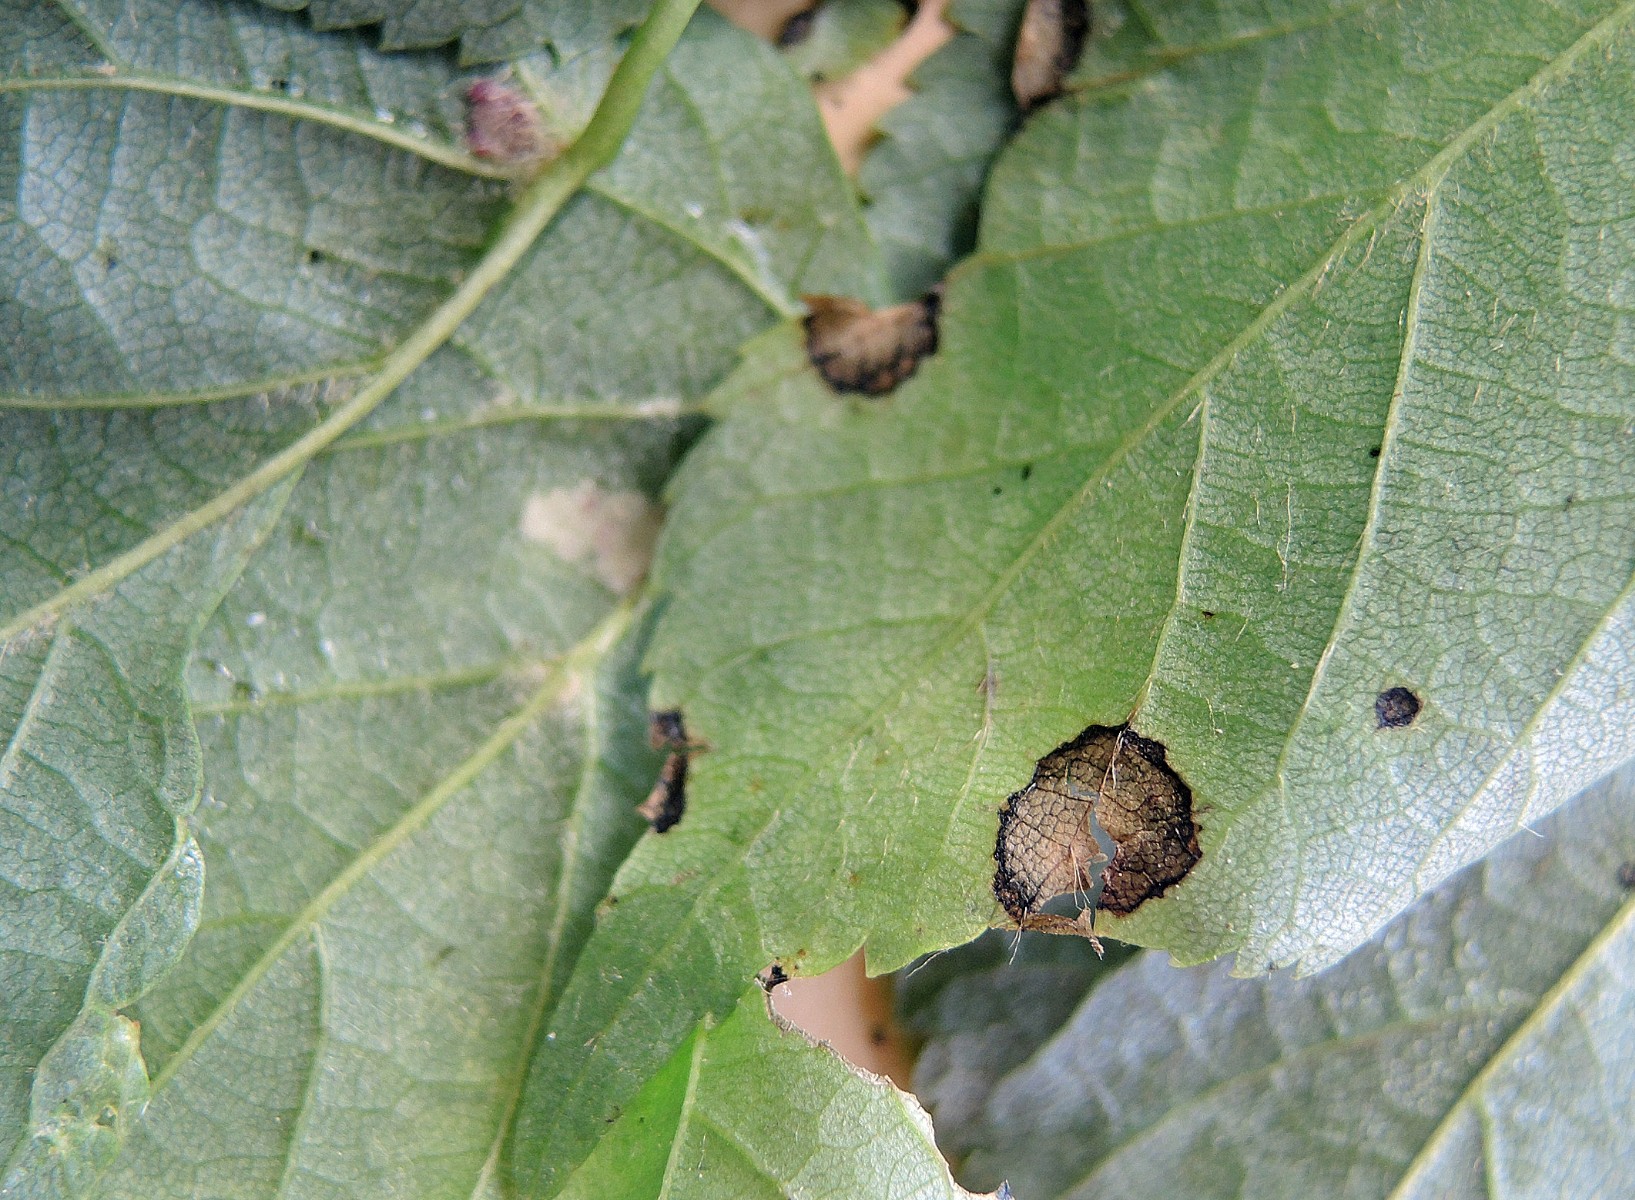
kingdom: Fungi
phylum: Ascomycota
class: Sordariomycetes
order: Diaporthales
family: Gnomoniaceae
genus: Apiognomonia
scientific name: Apiognomonia errabunda
